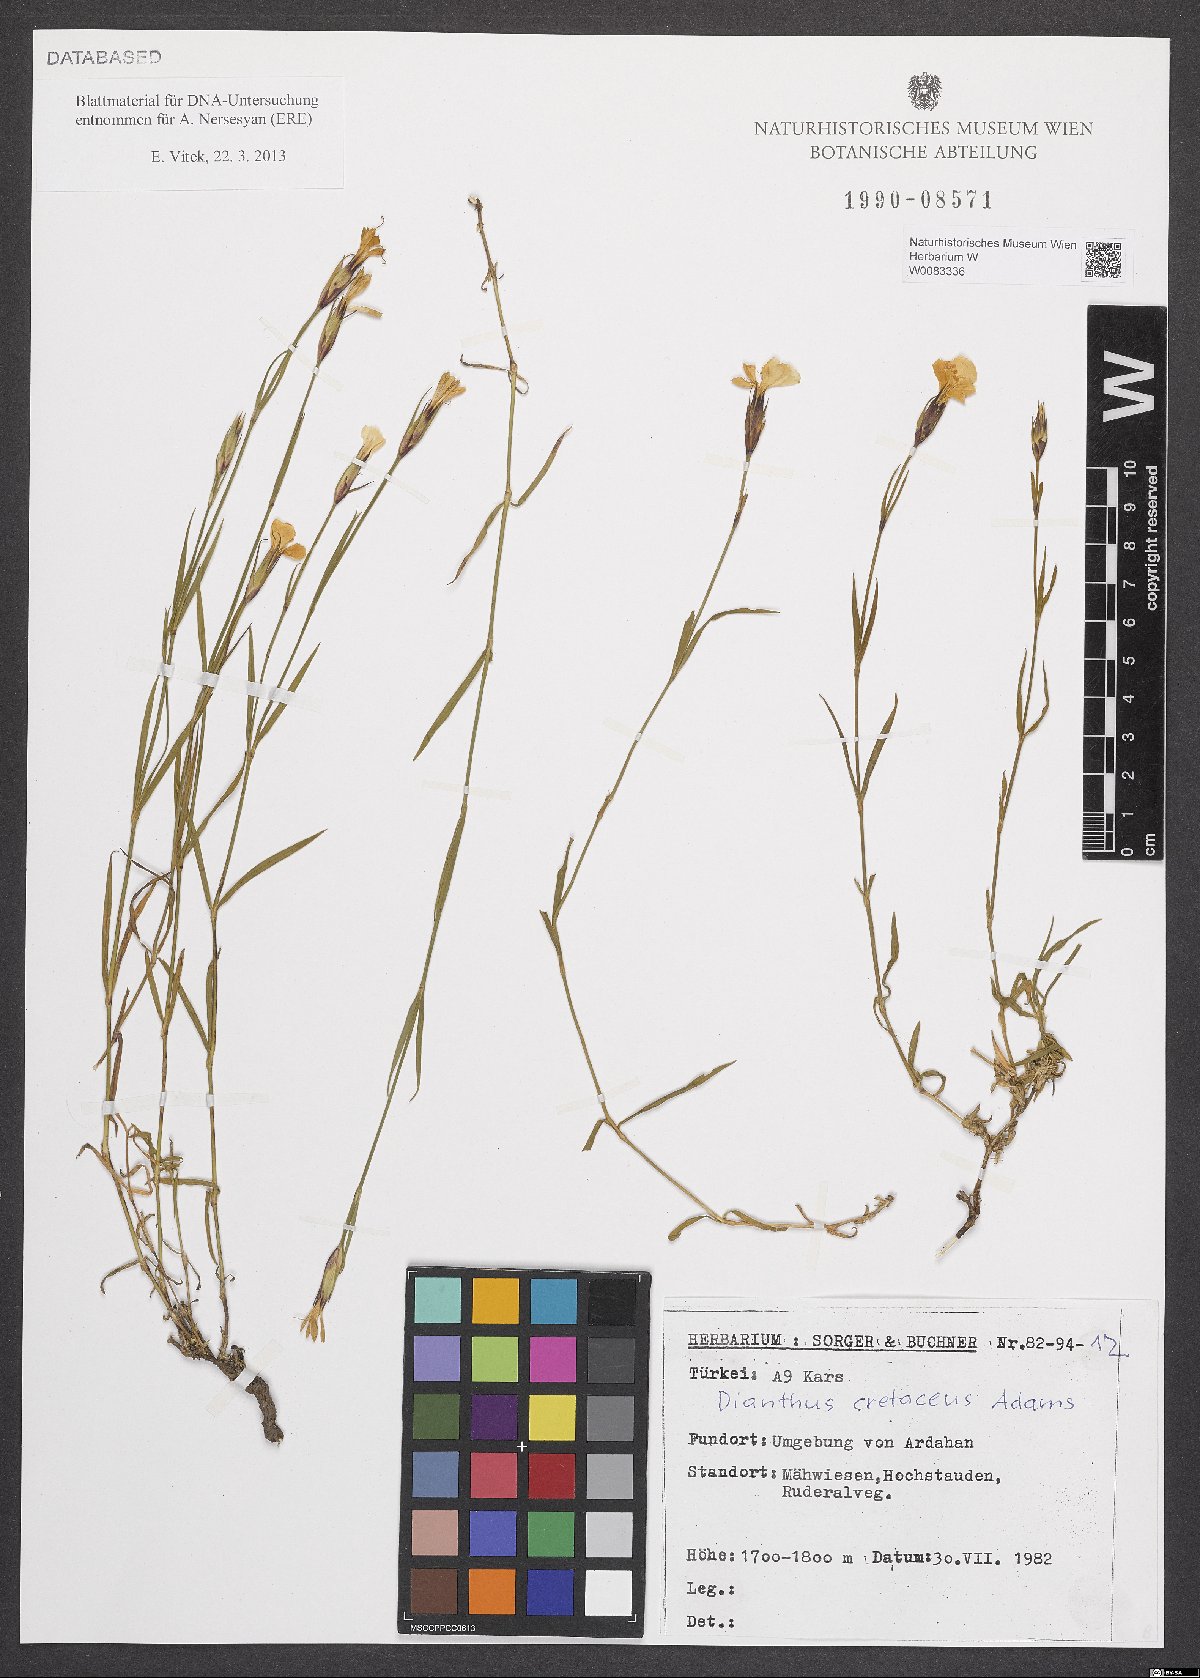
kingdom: Plantae
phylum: Tracheophyta
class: Magnoliopsida
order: Caryophyllales
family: Caryophyllaceae
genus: Dianthus
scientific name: Dianthus cretaceus
